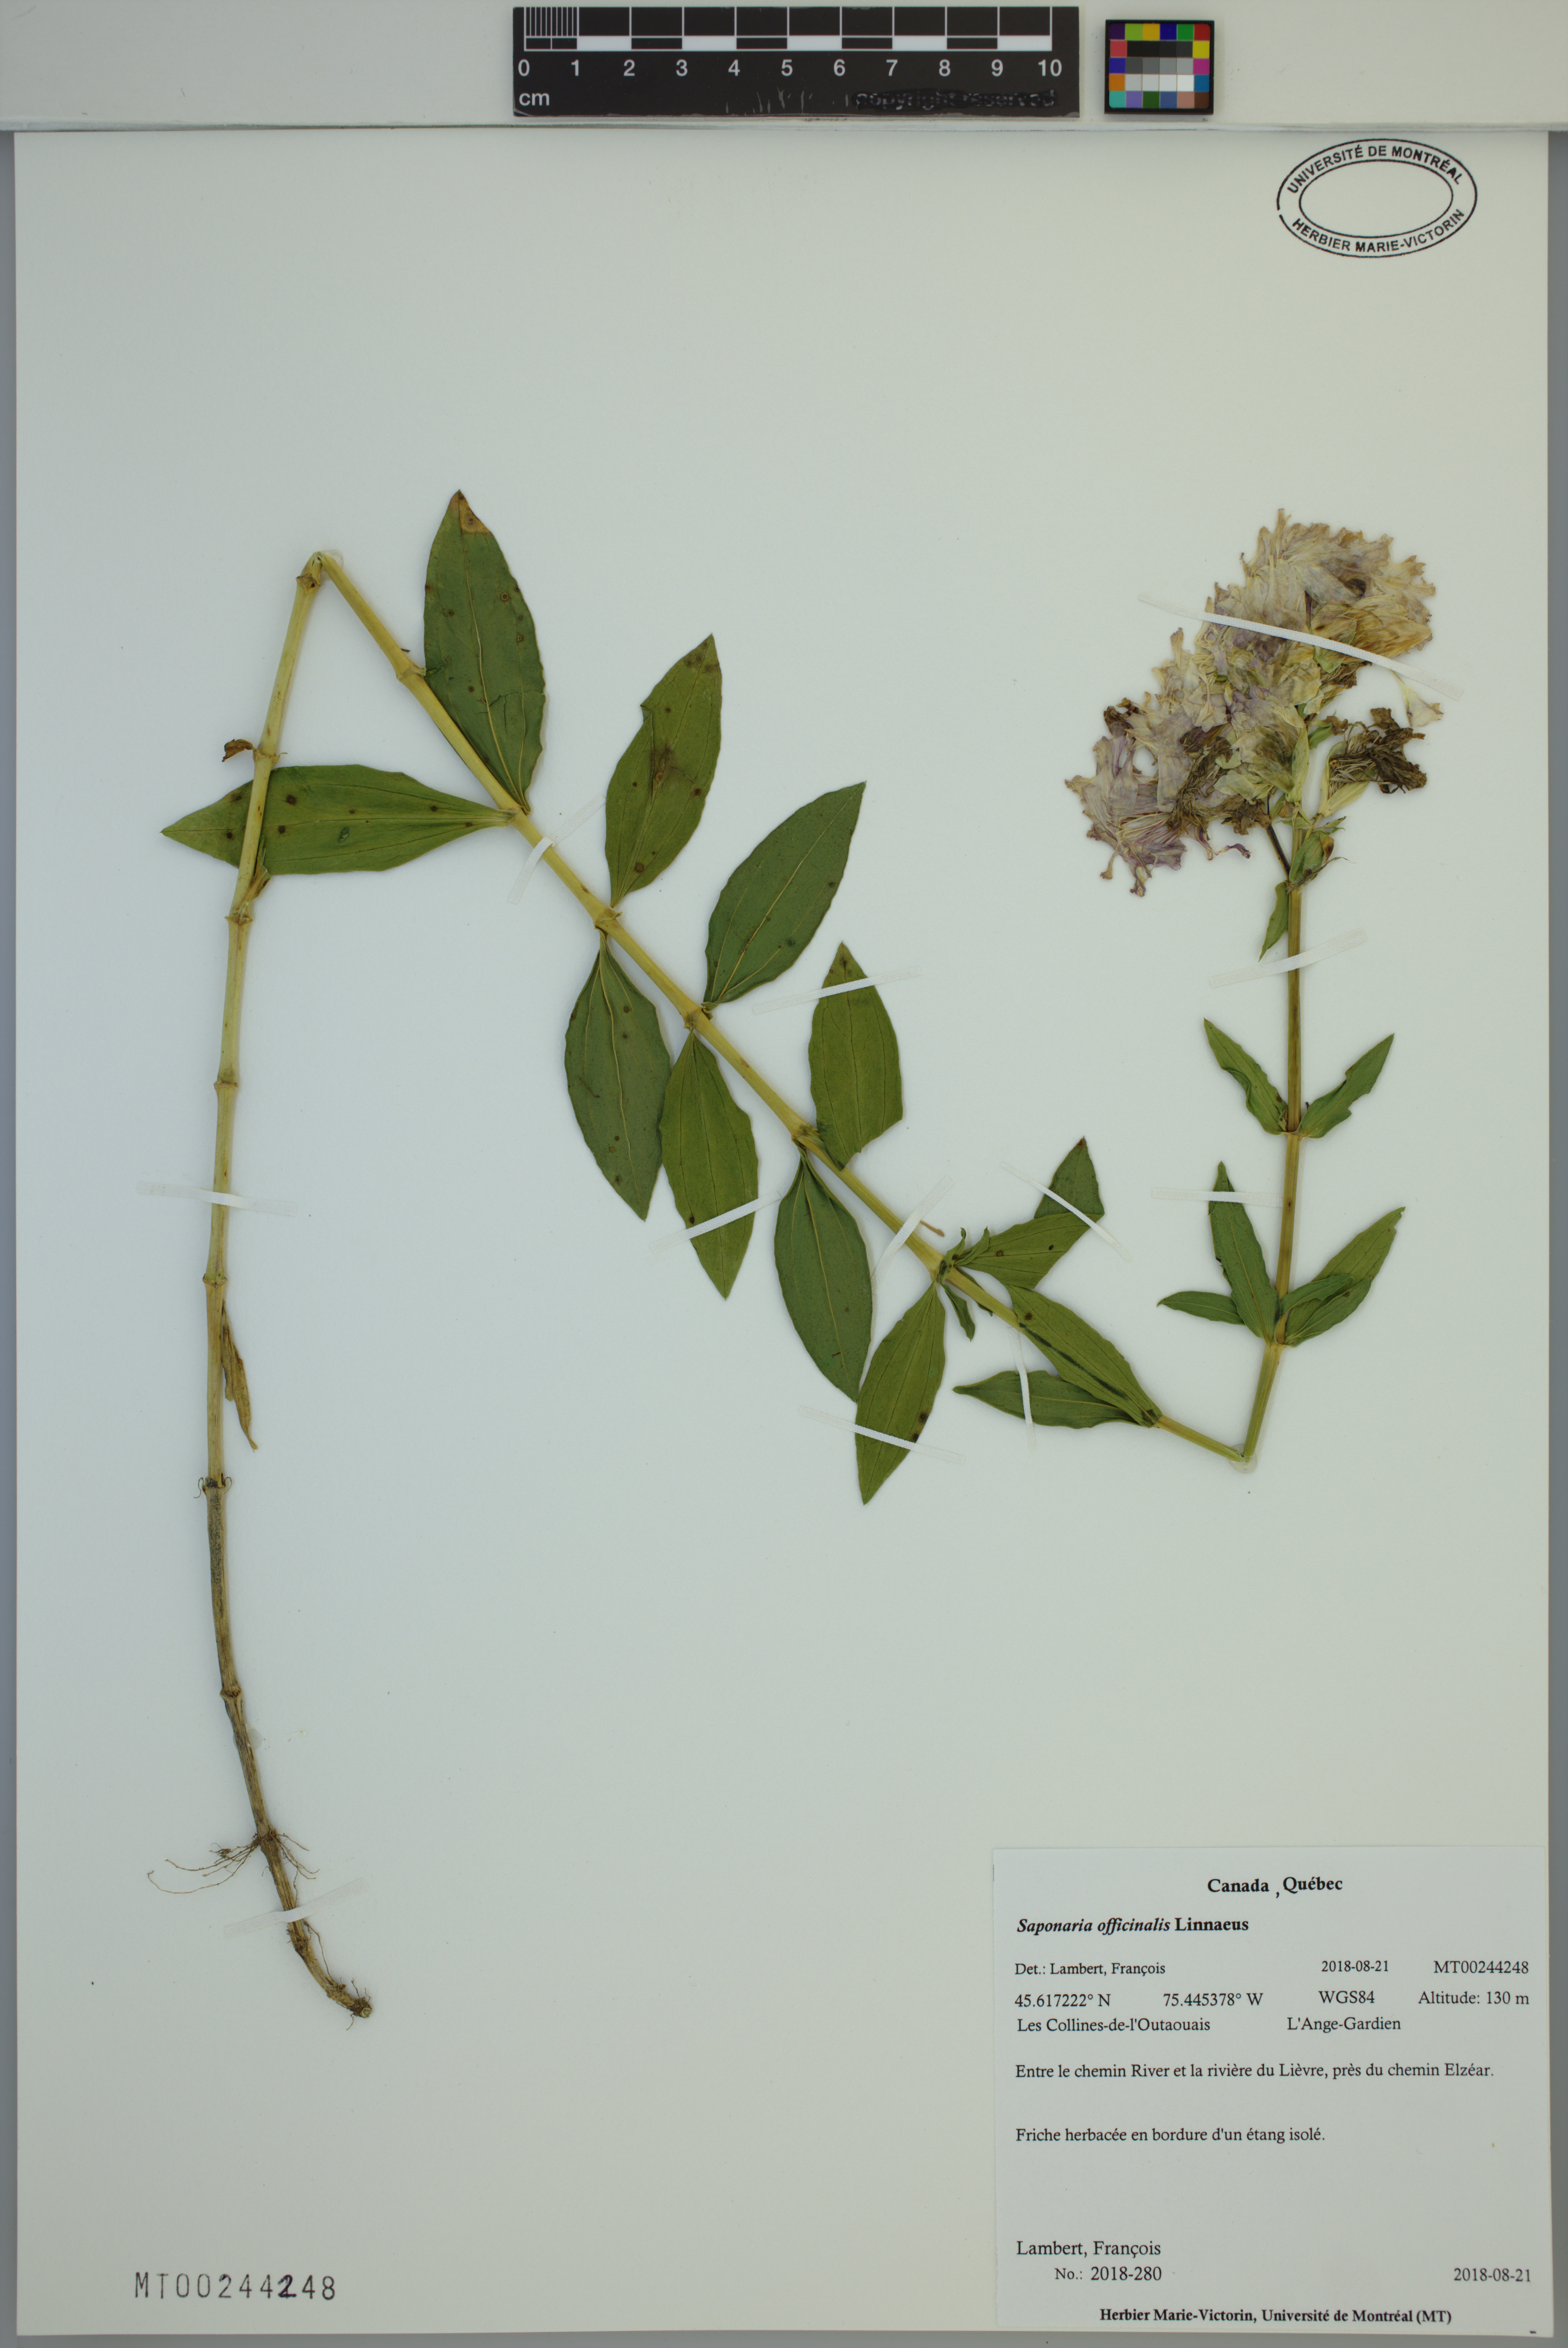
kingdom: Plantae
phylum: Tracheophyta
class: Magnoliopsida
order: Caryophyllales
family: Caryophyllaceae
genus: Saponaria
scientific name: Saponaria officinalis
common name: Soapwort
